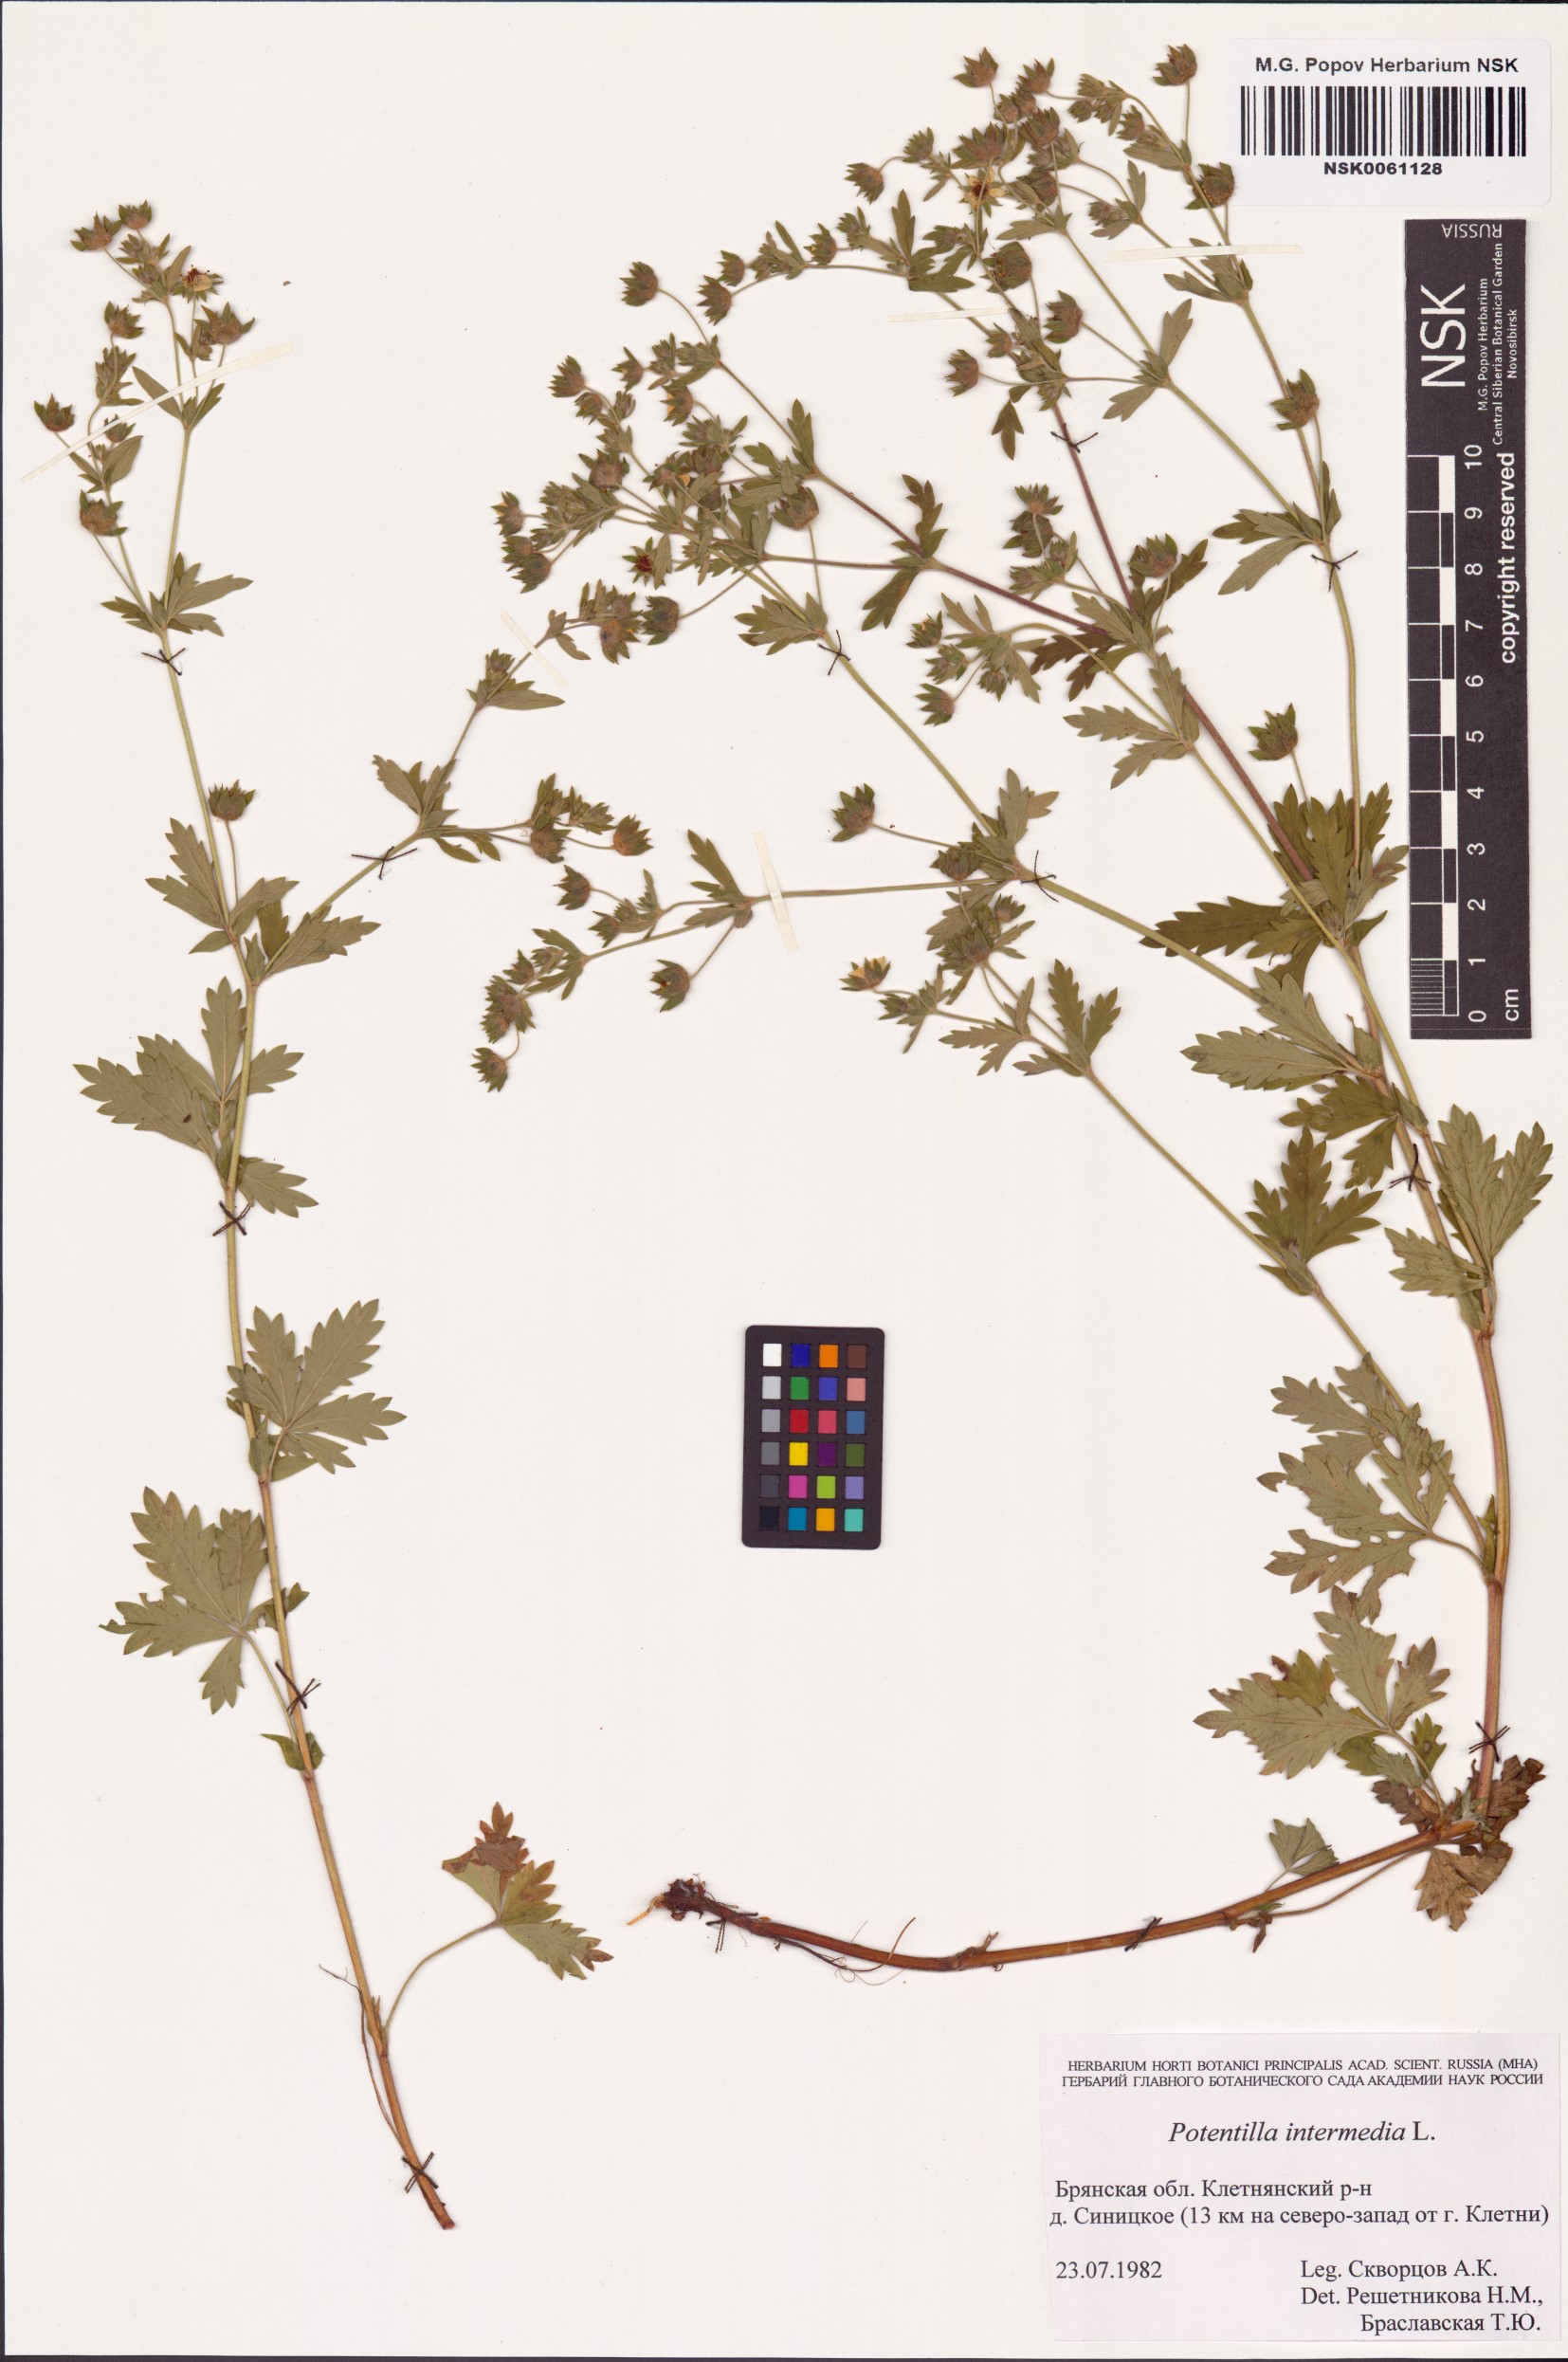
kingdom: Plantae
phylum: Tracheophyta
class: Magnoliopsida
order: Rosales
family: Rosaceae
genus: Potentilla
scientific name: Potentilla intermedia
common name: Downy cinquefoil
